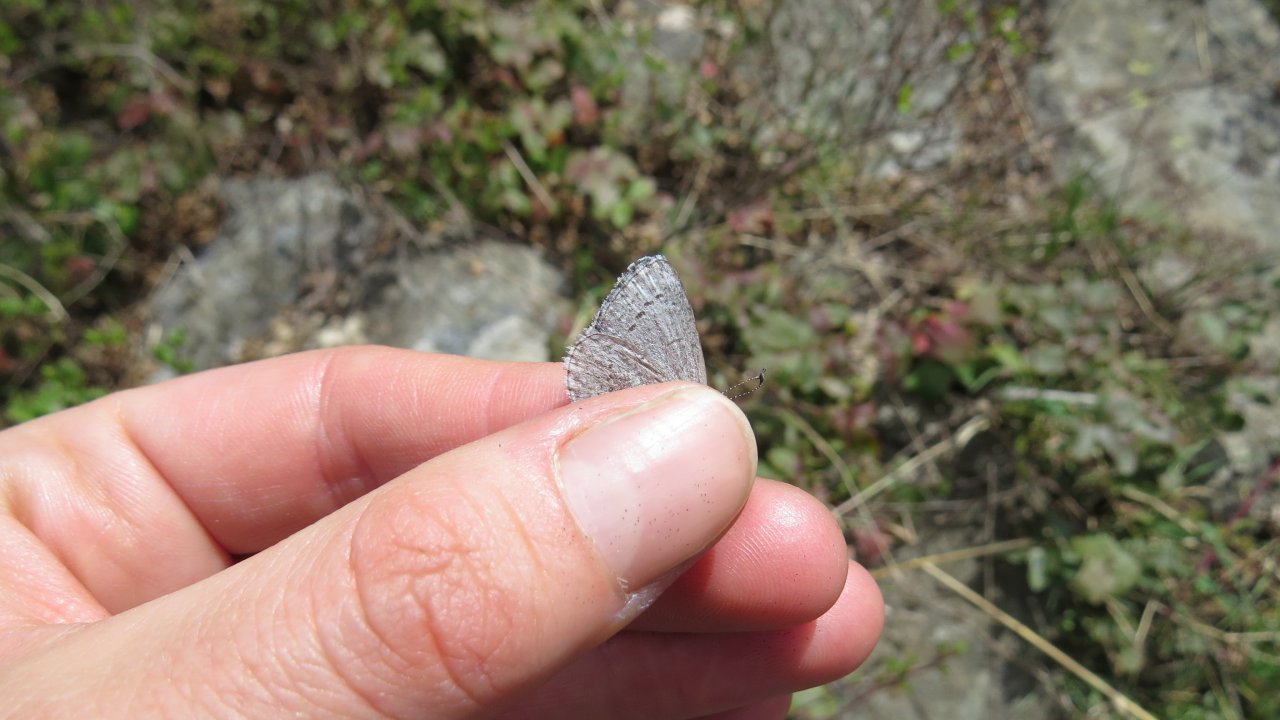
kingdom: Animalia
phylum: Arthropoda
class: Insecta
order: Lepidoptera
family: Lycaenidae
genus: Celastrina
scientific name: Celastrina ladon
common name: Spring Azure
